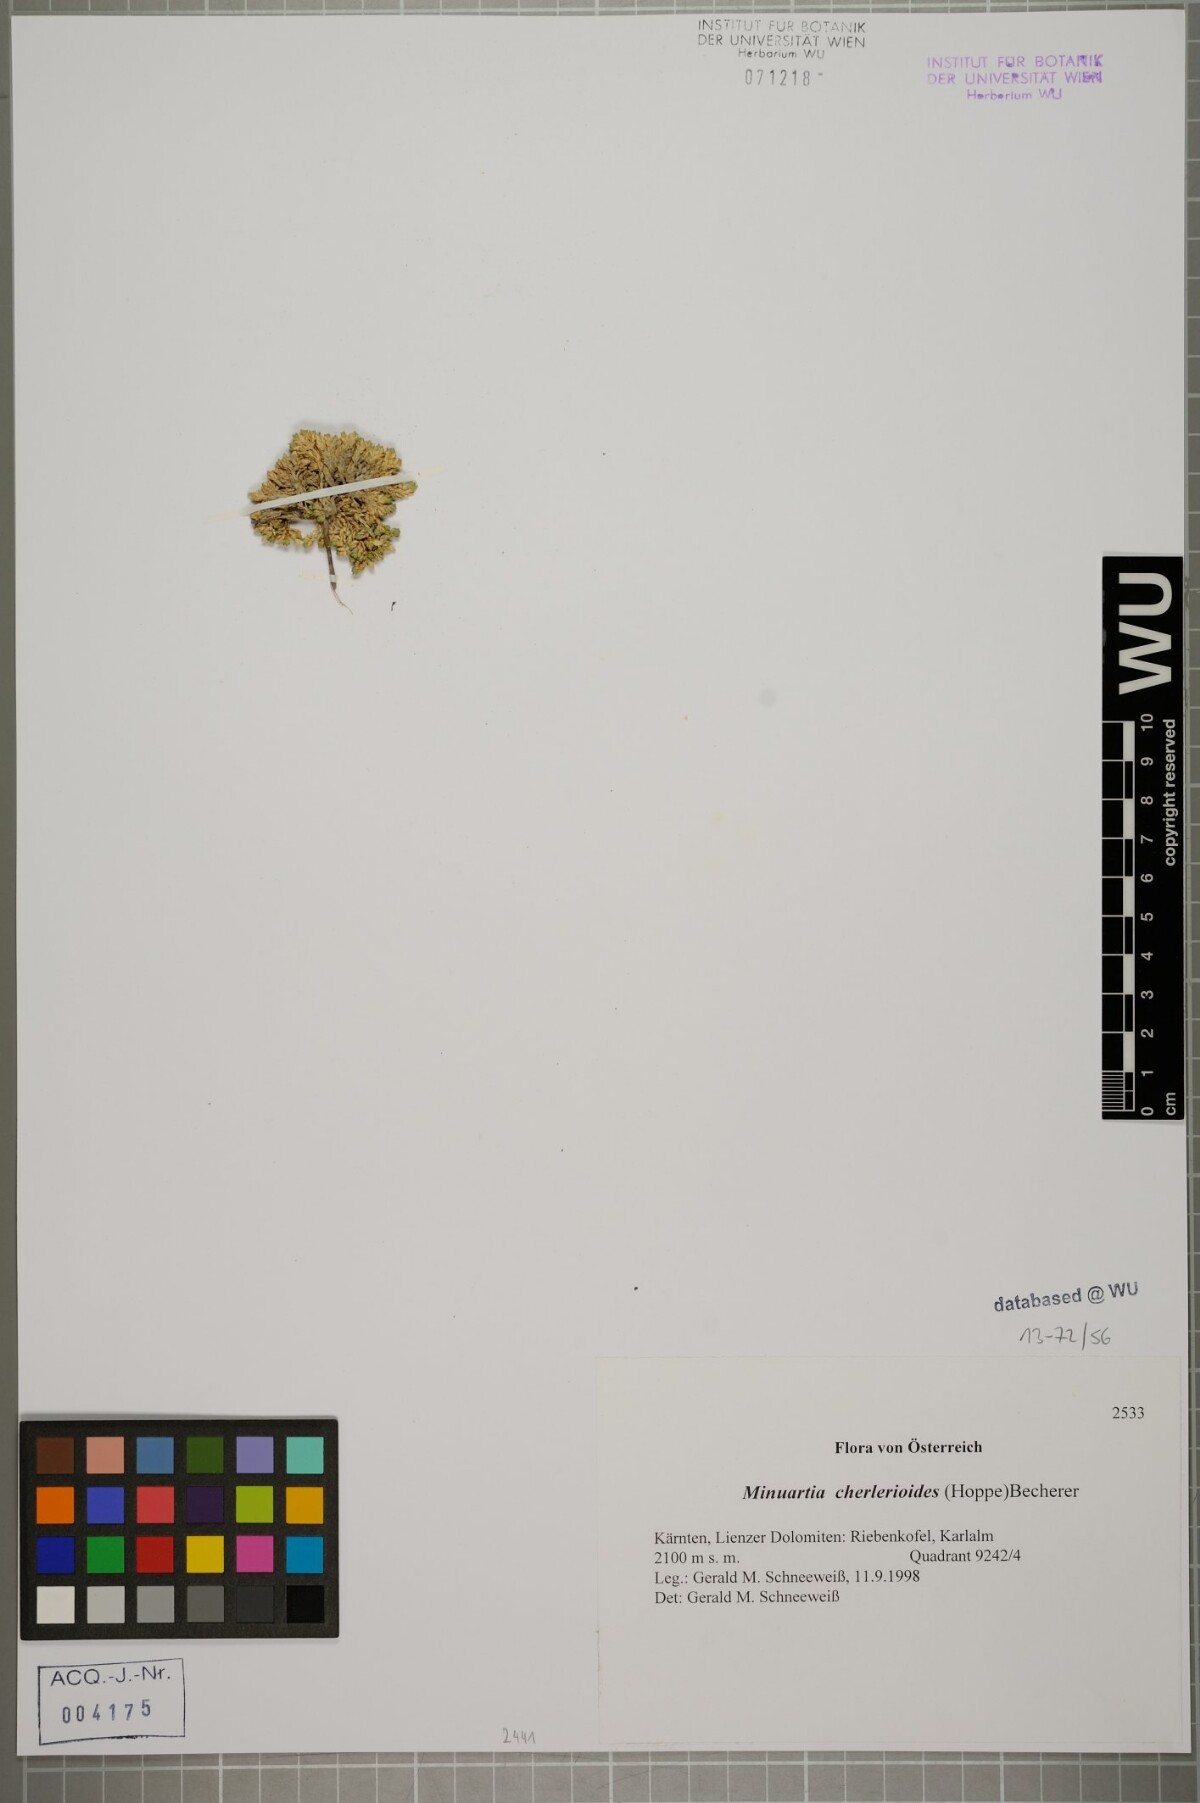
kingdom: Plantae
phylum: Tracheophyta
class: Magnoliopsida
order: Caryophyllales
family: Caryophyllaceae
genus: Facchinia
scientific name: Facchinia cherlerioides
